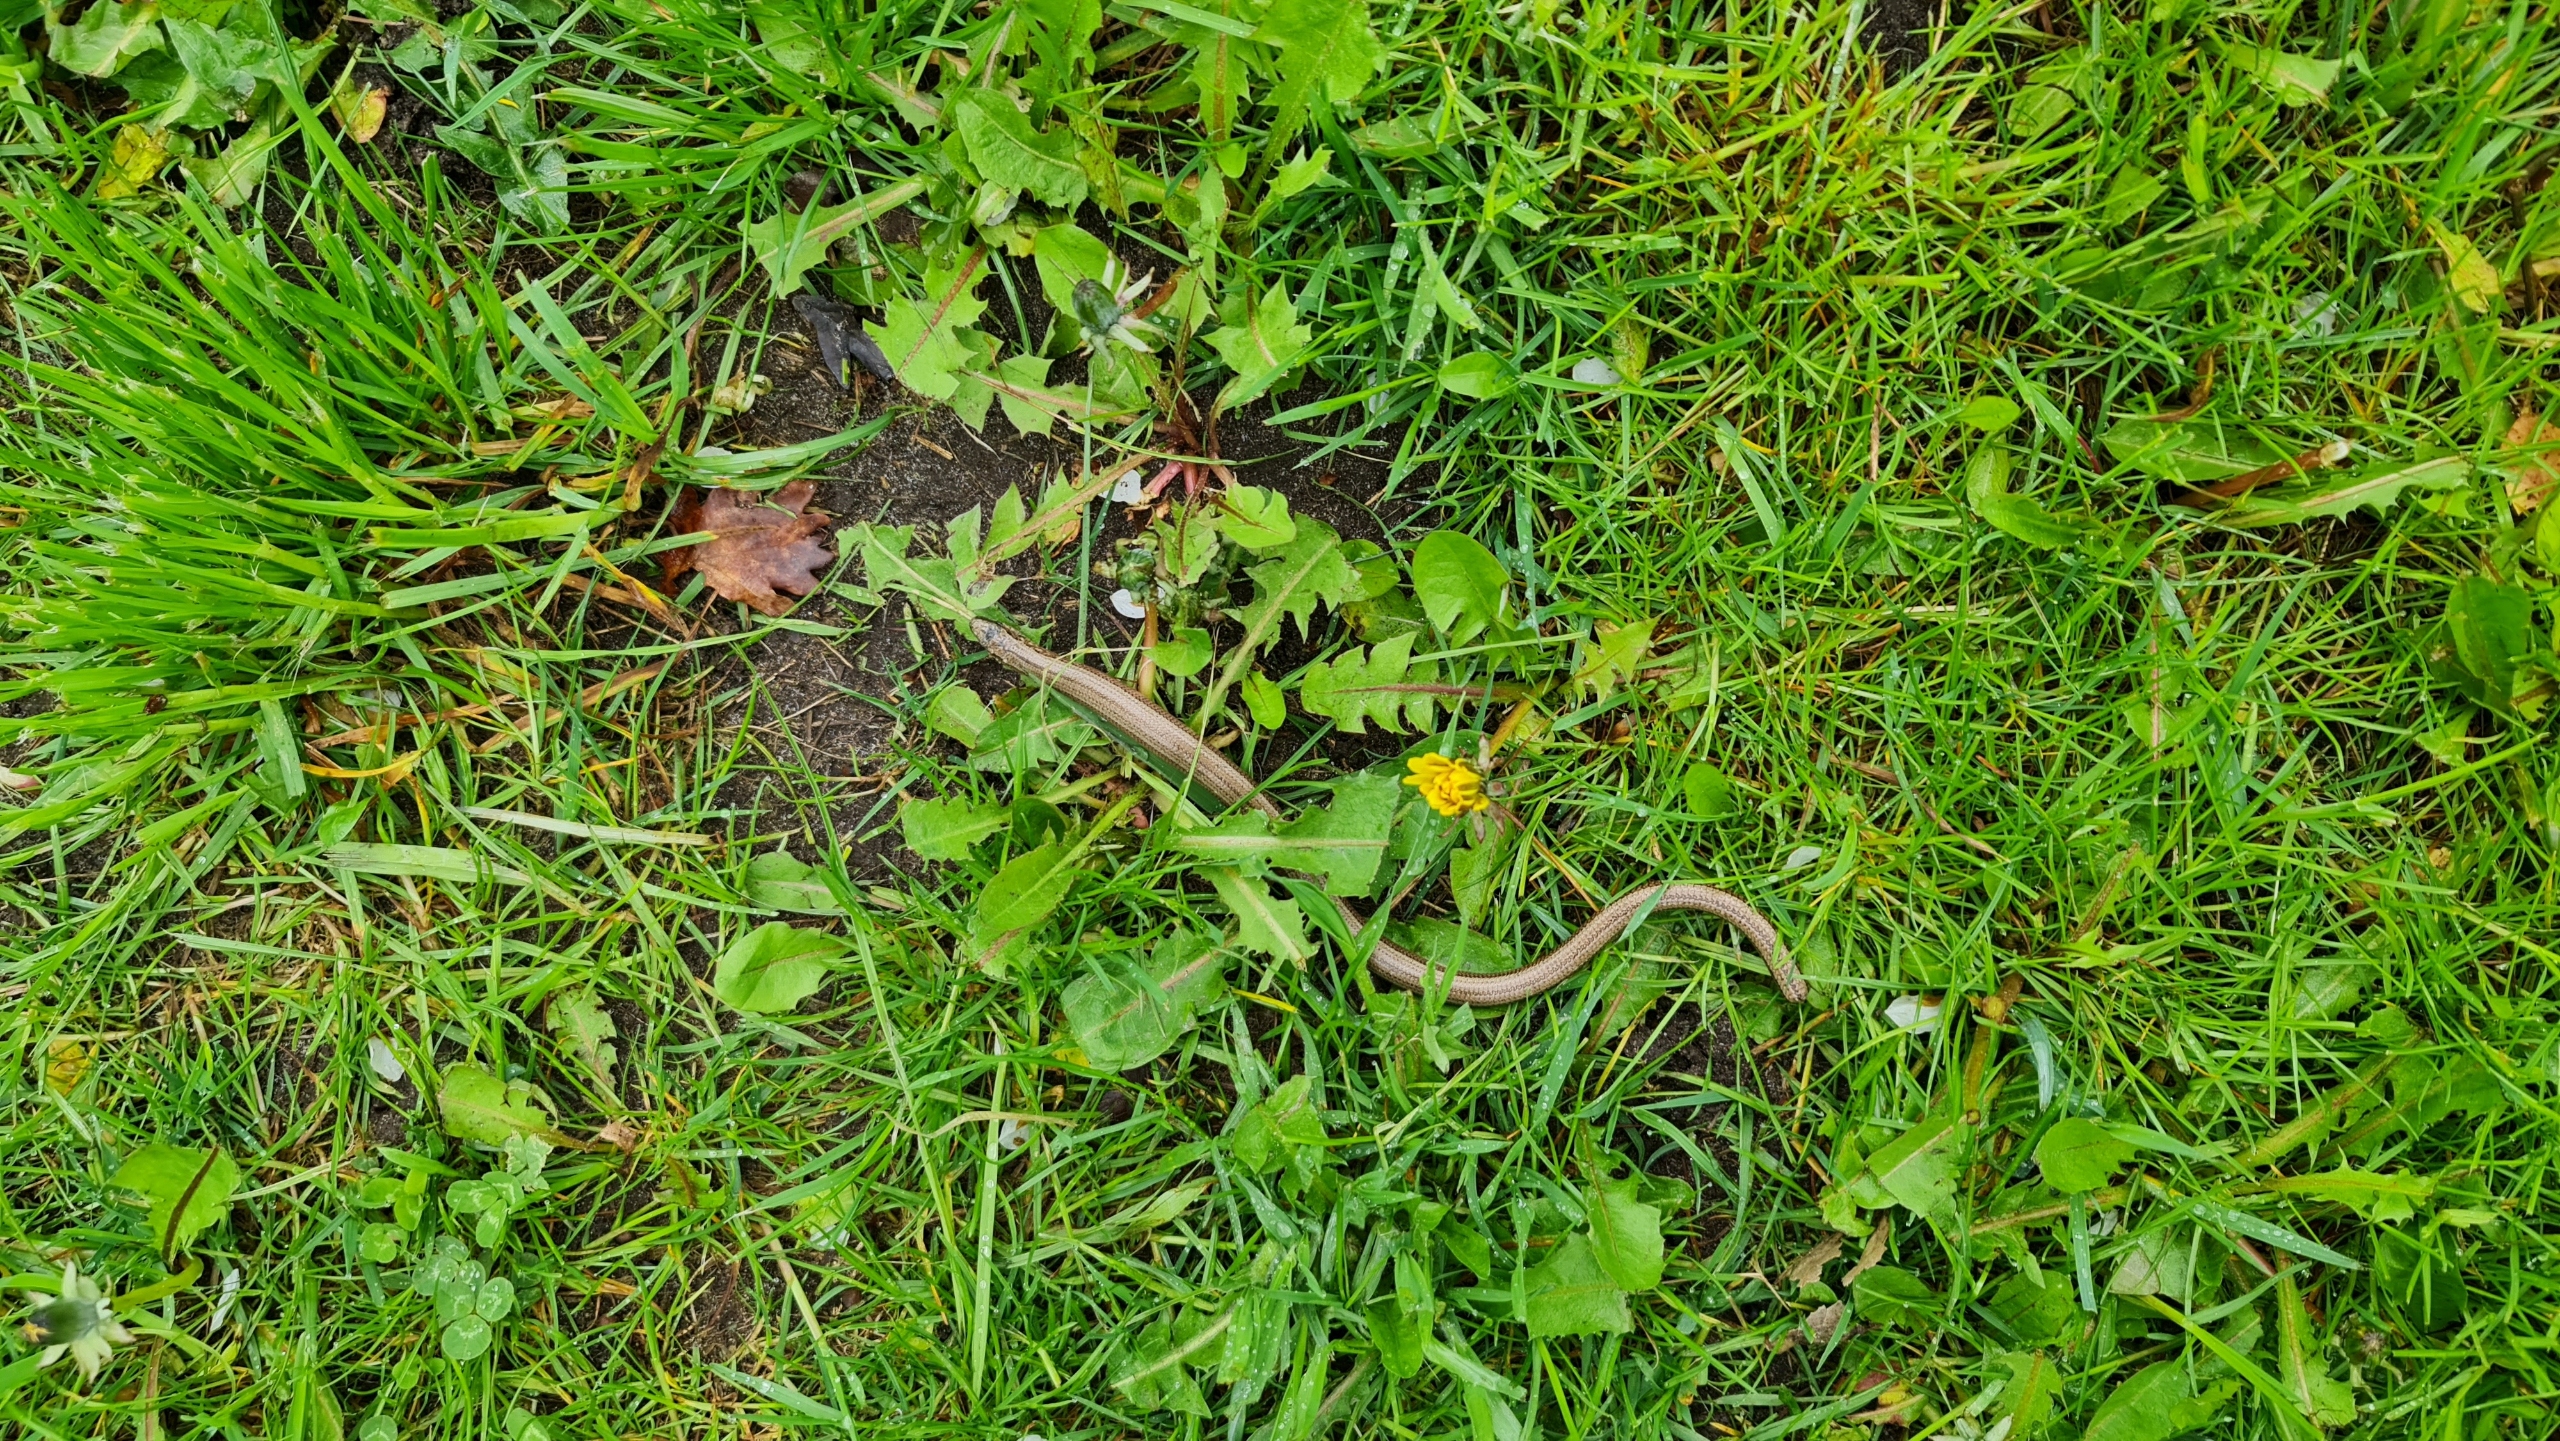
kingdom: Animalia
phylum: Chordata
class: Squamata
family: Anguidae
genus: Anguis
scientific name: Anguis fragilis
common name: Stålorm
